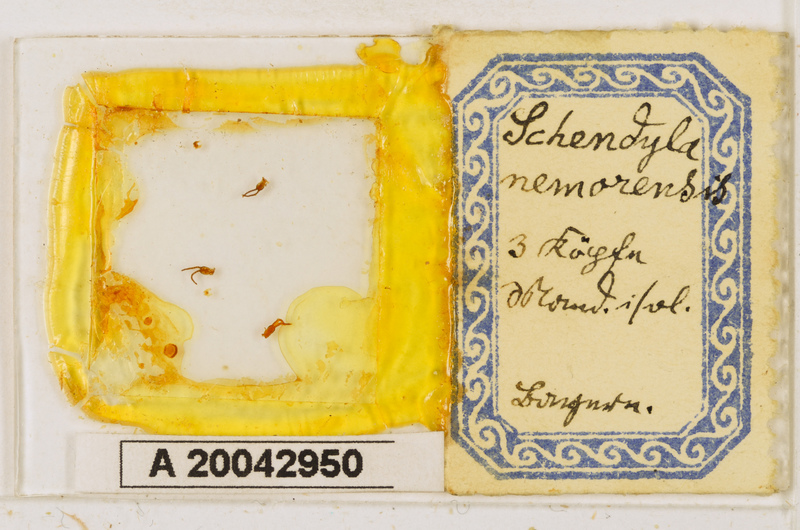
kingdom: Animalia
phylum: Arthropoda
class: Chilopoda
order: Geophilomorpha
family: Schendylidae
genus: Schendyla
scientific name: Schendyla nemorensis
